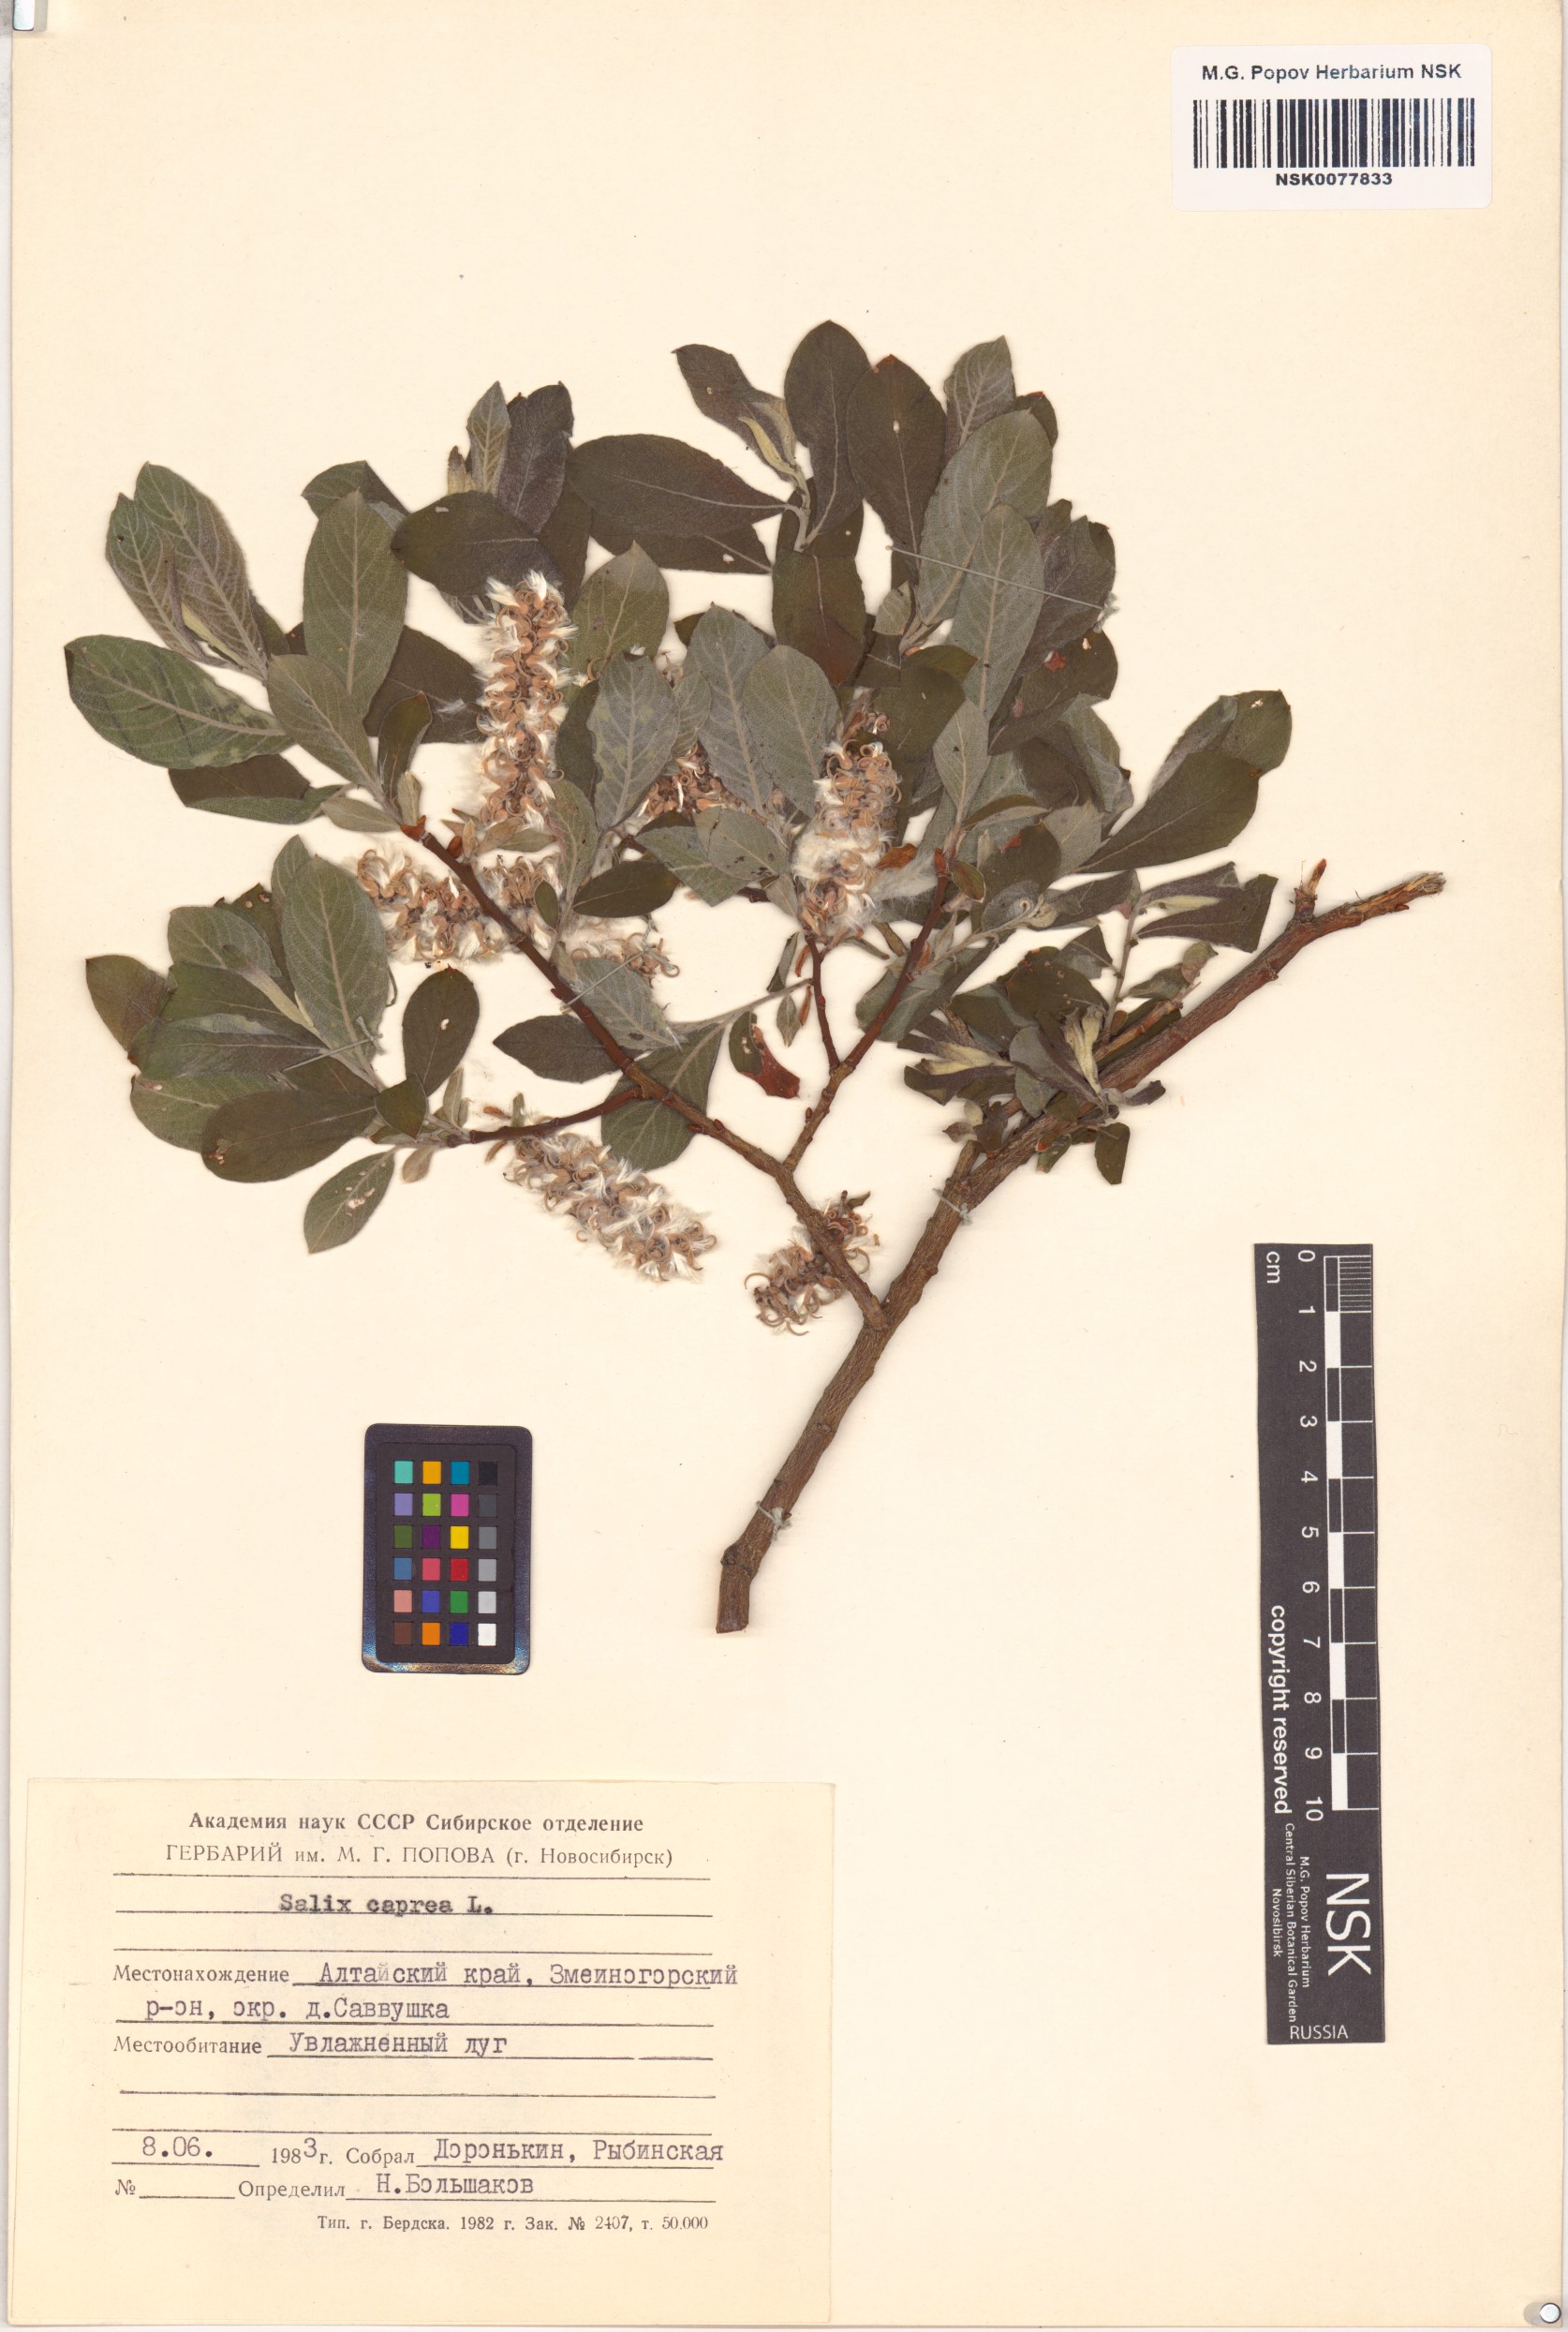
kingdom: Plantae
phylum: Tracheophyta
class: Magnoliopsida
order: Malpighiales
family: Salicaceae
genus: Salix
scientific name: Salix caprea
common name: Goat willow
